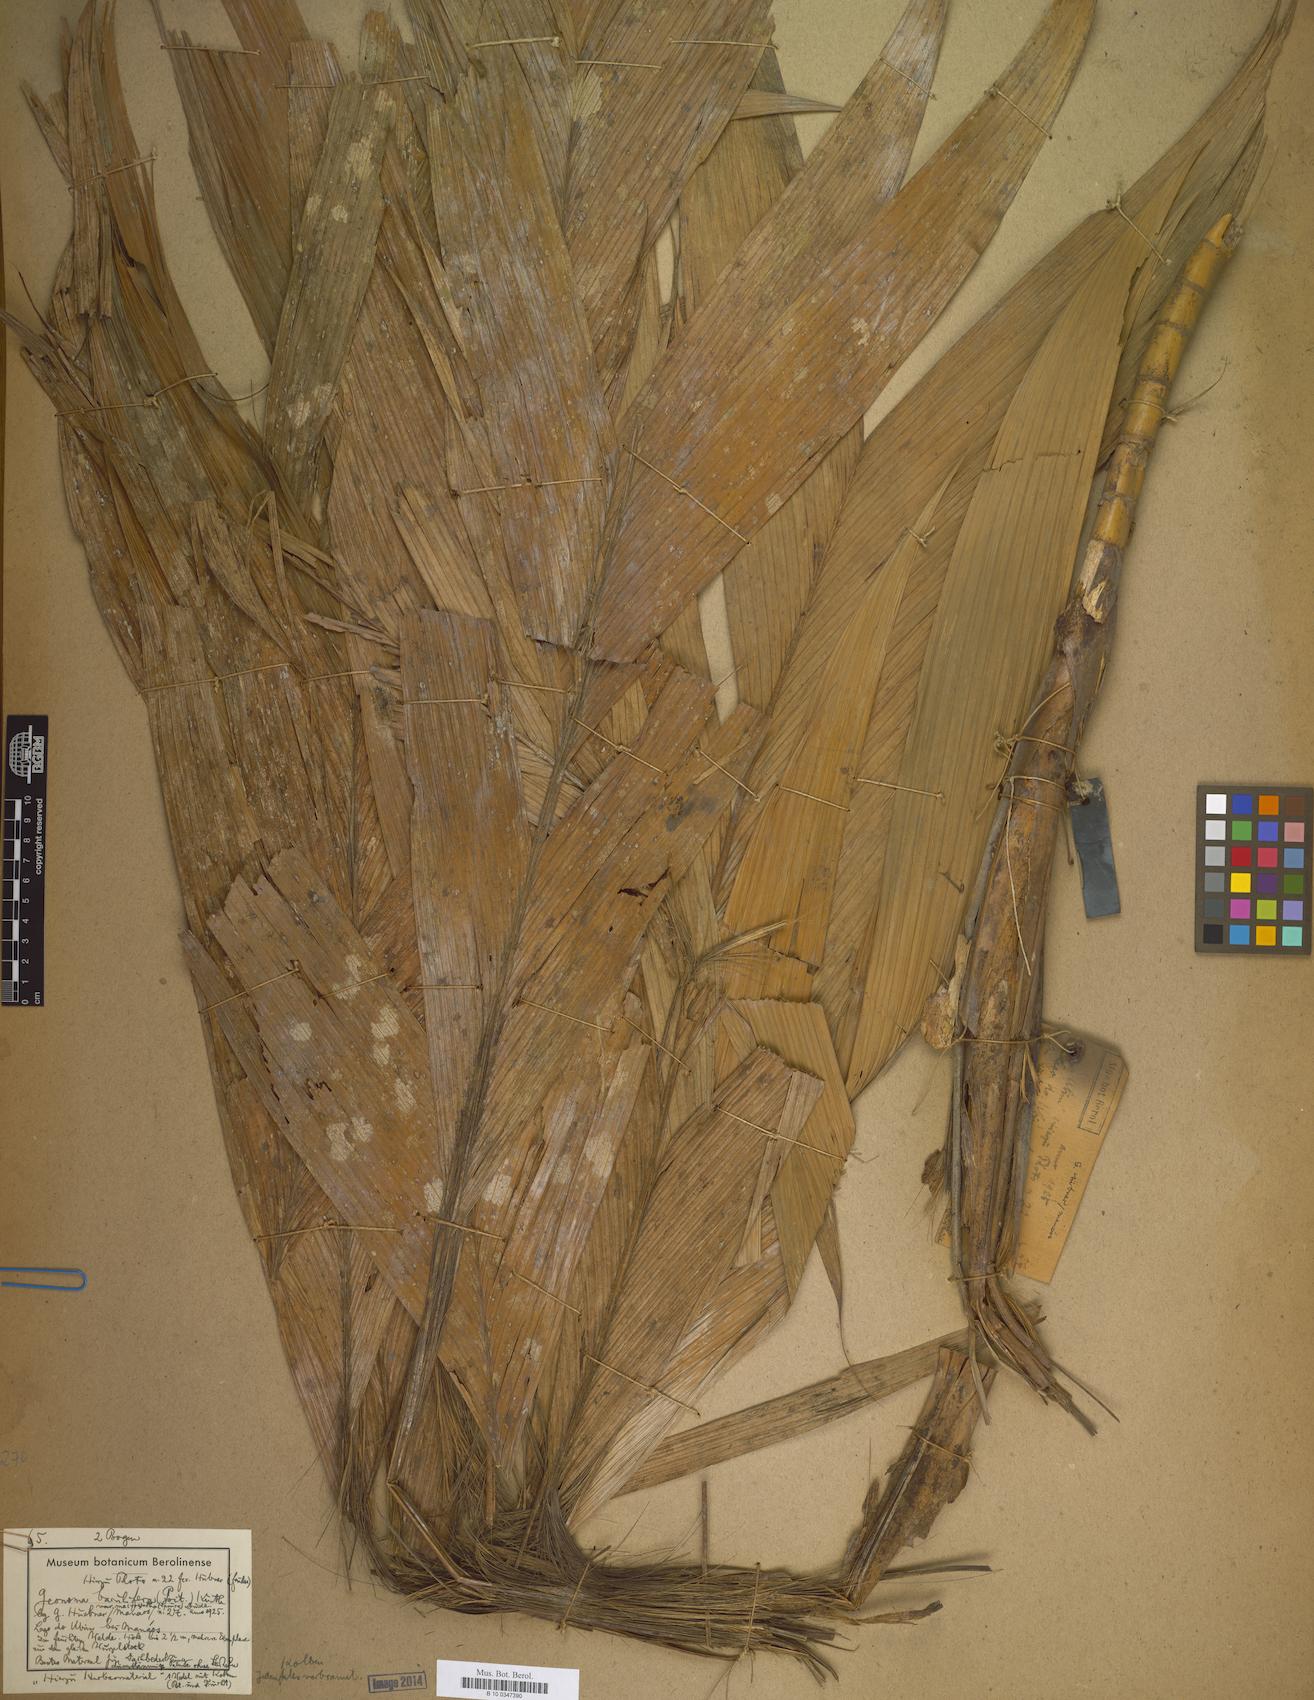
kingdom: Plantae
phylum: Tracheophyta
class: Liliopsida
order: Arecales
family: Arecaceae
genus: Geonoma
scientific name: Geonoma
